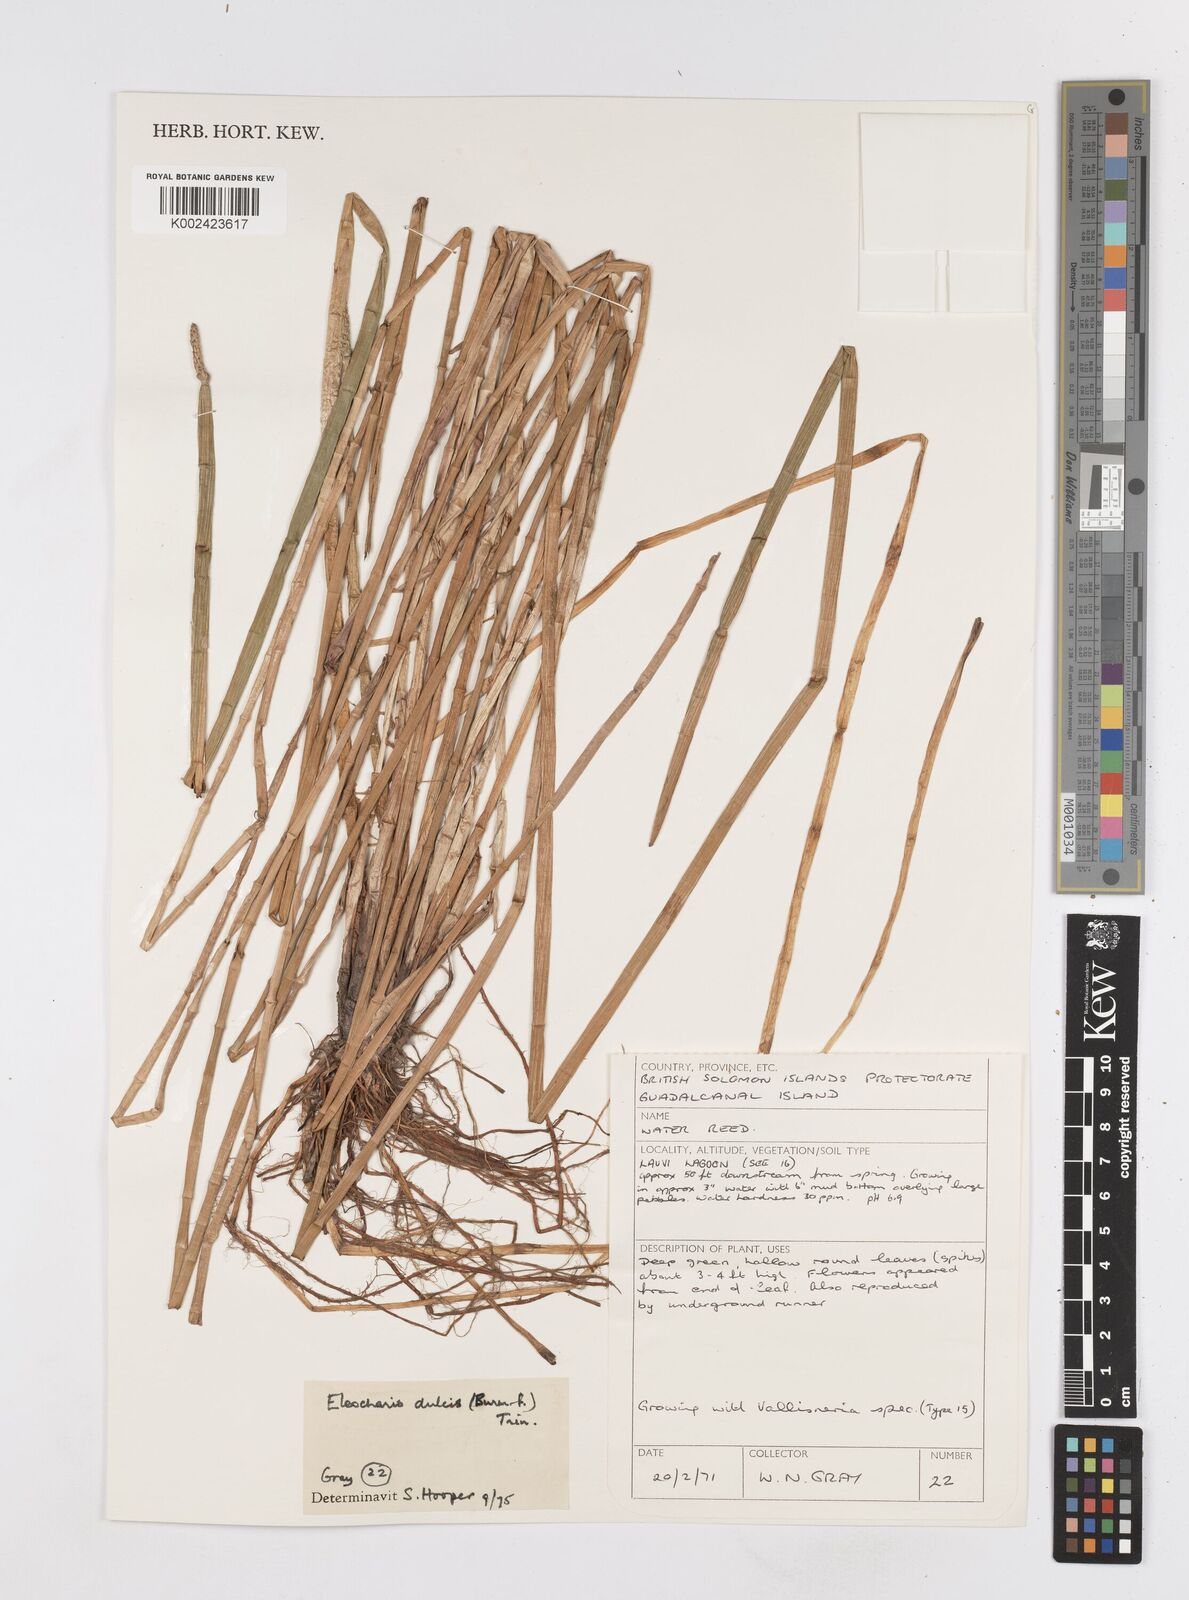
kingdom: Plantae
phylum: Tracheophyta
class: Liliopsida
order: Poales
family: Cyperaceae
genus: Eleocharis
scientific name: Eleocharis dulcis
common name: Chinese water chestnut
